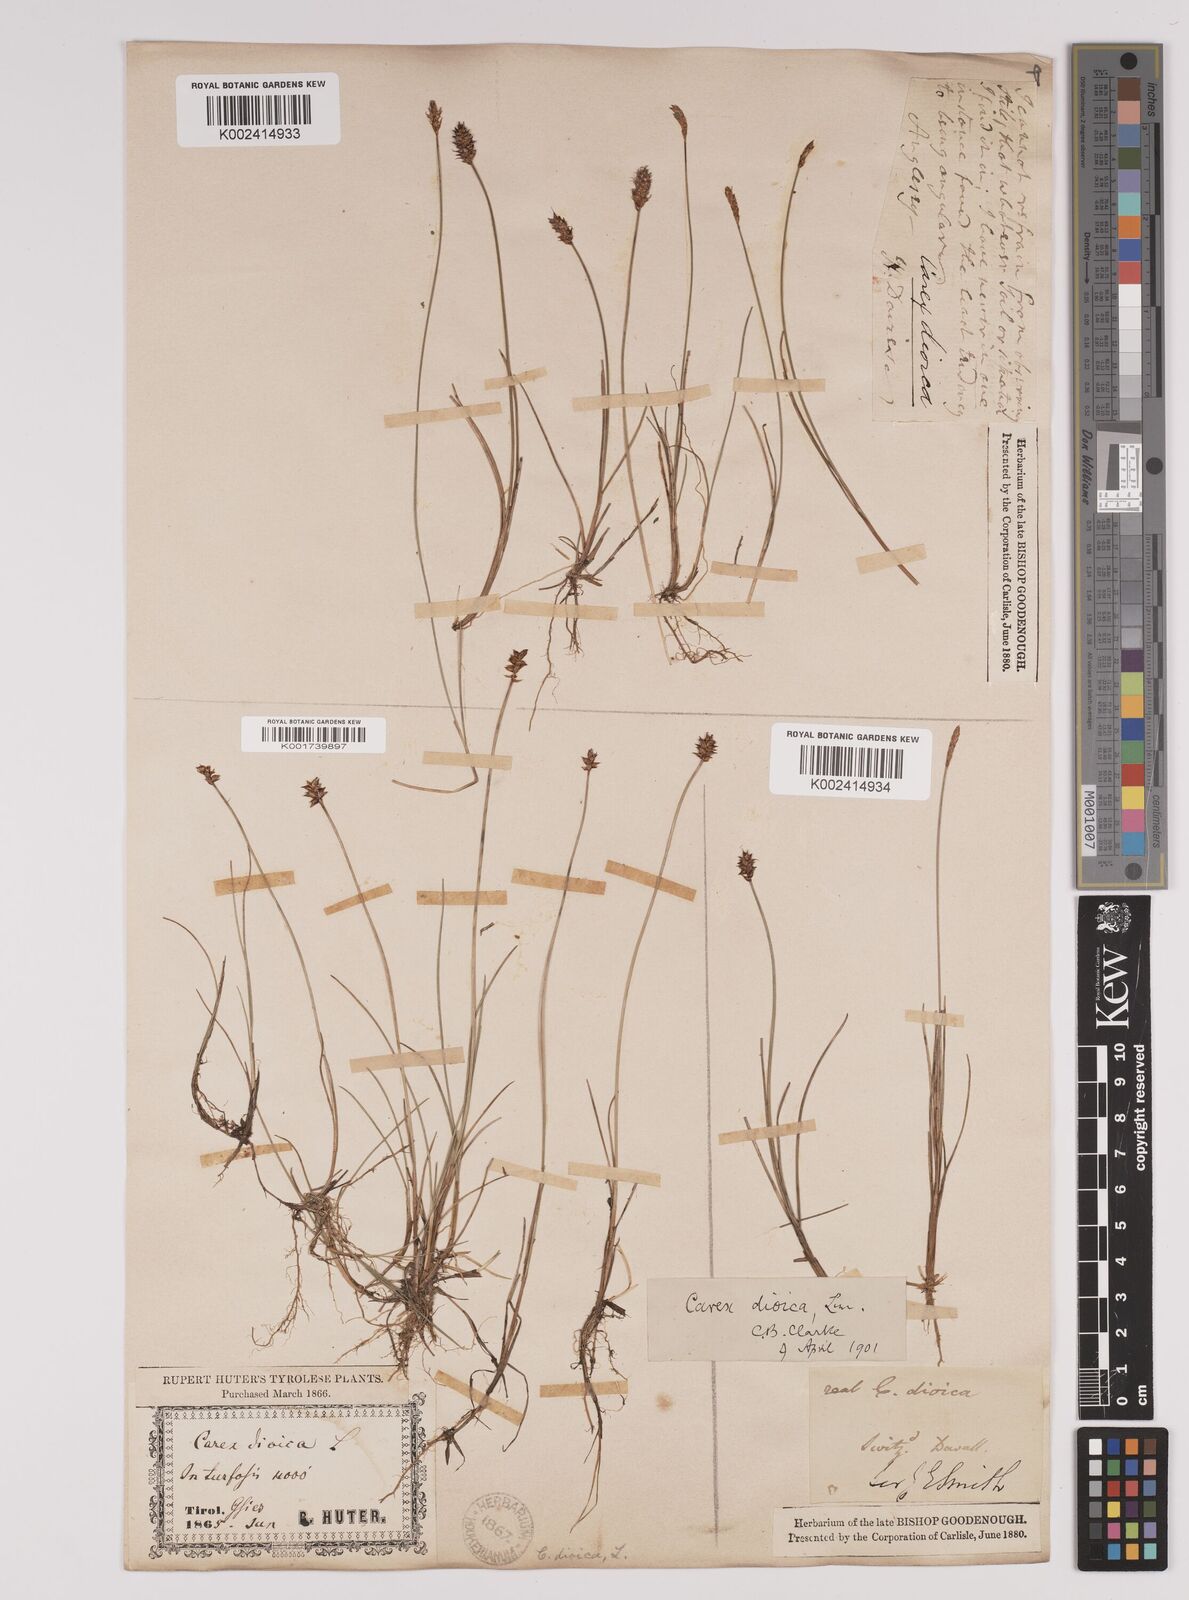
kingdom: Plantae
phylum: Tracheophyta
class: Liliopsida
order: Poales
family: Cyperaceae
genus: Carex
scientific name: Carex dioica
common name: Dioecious sedge
